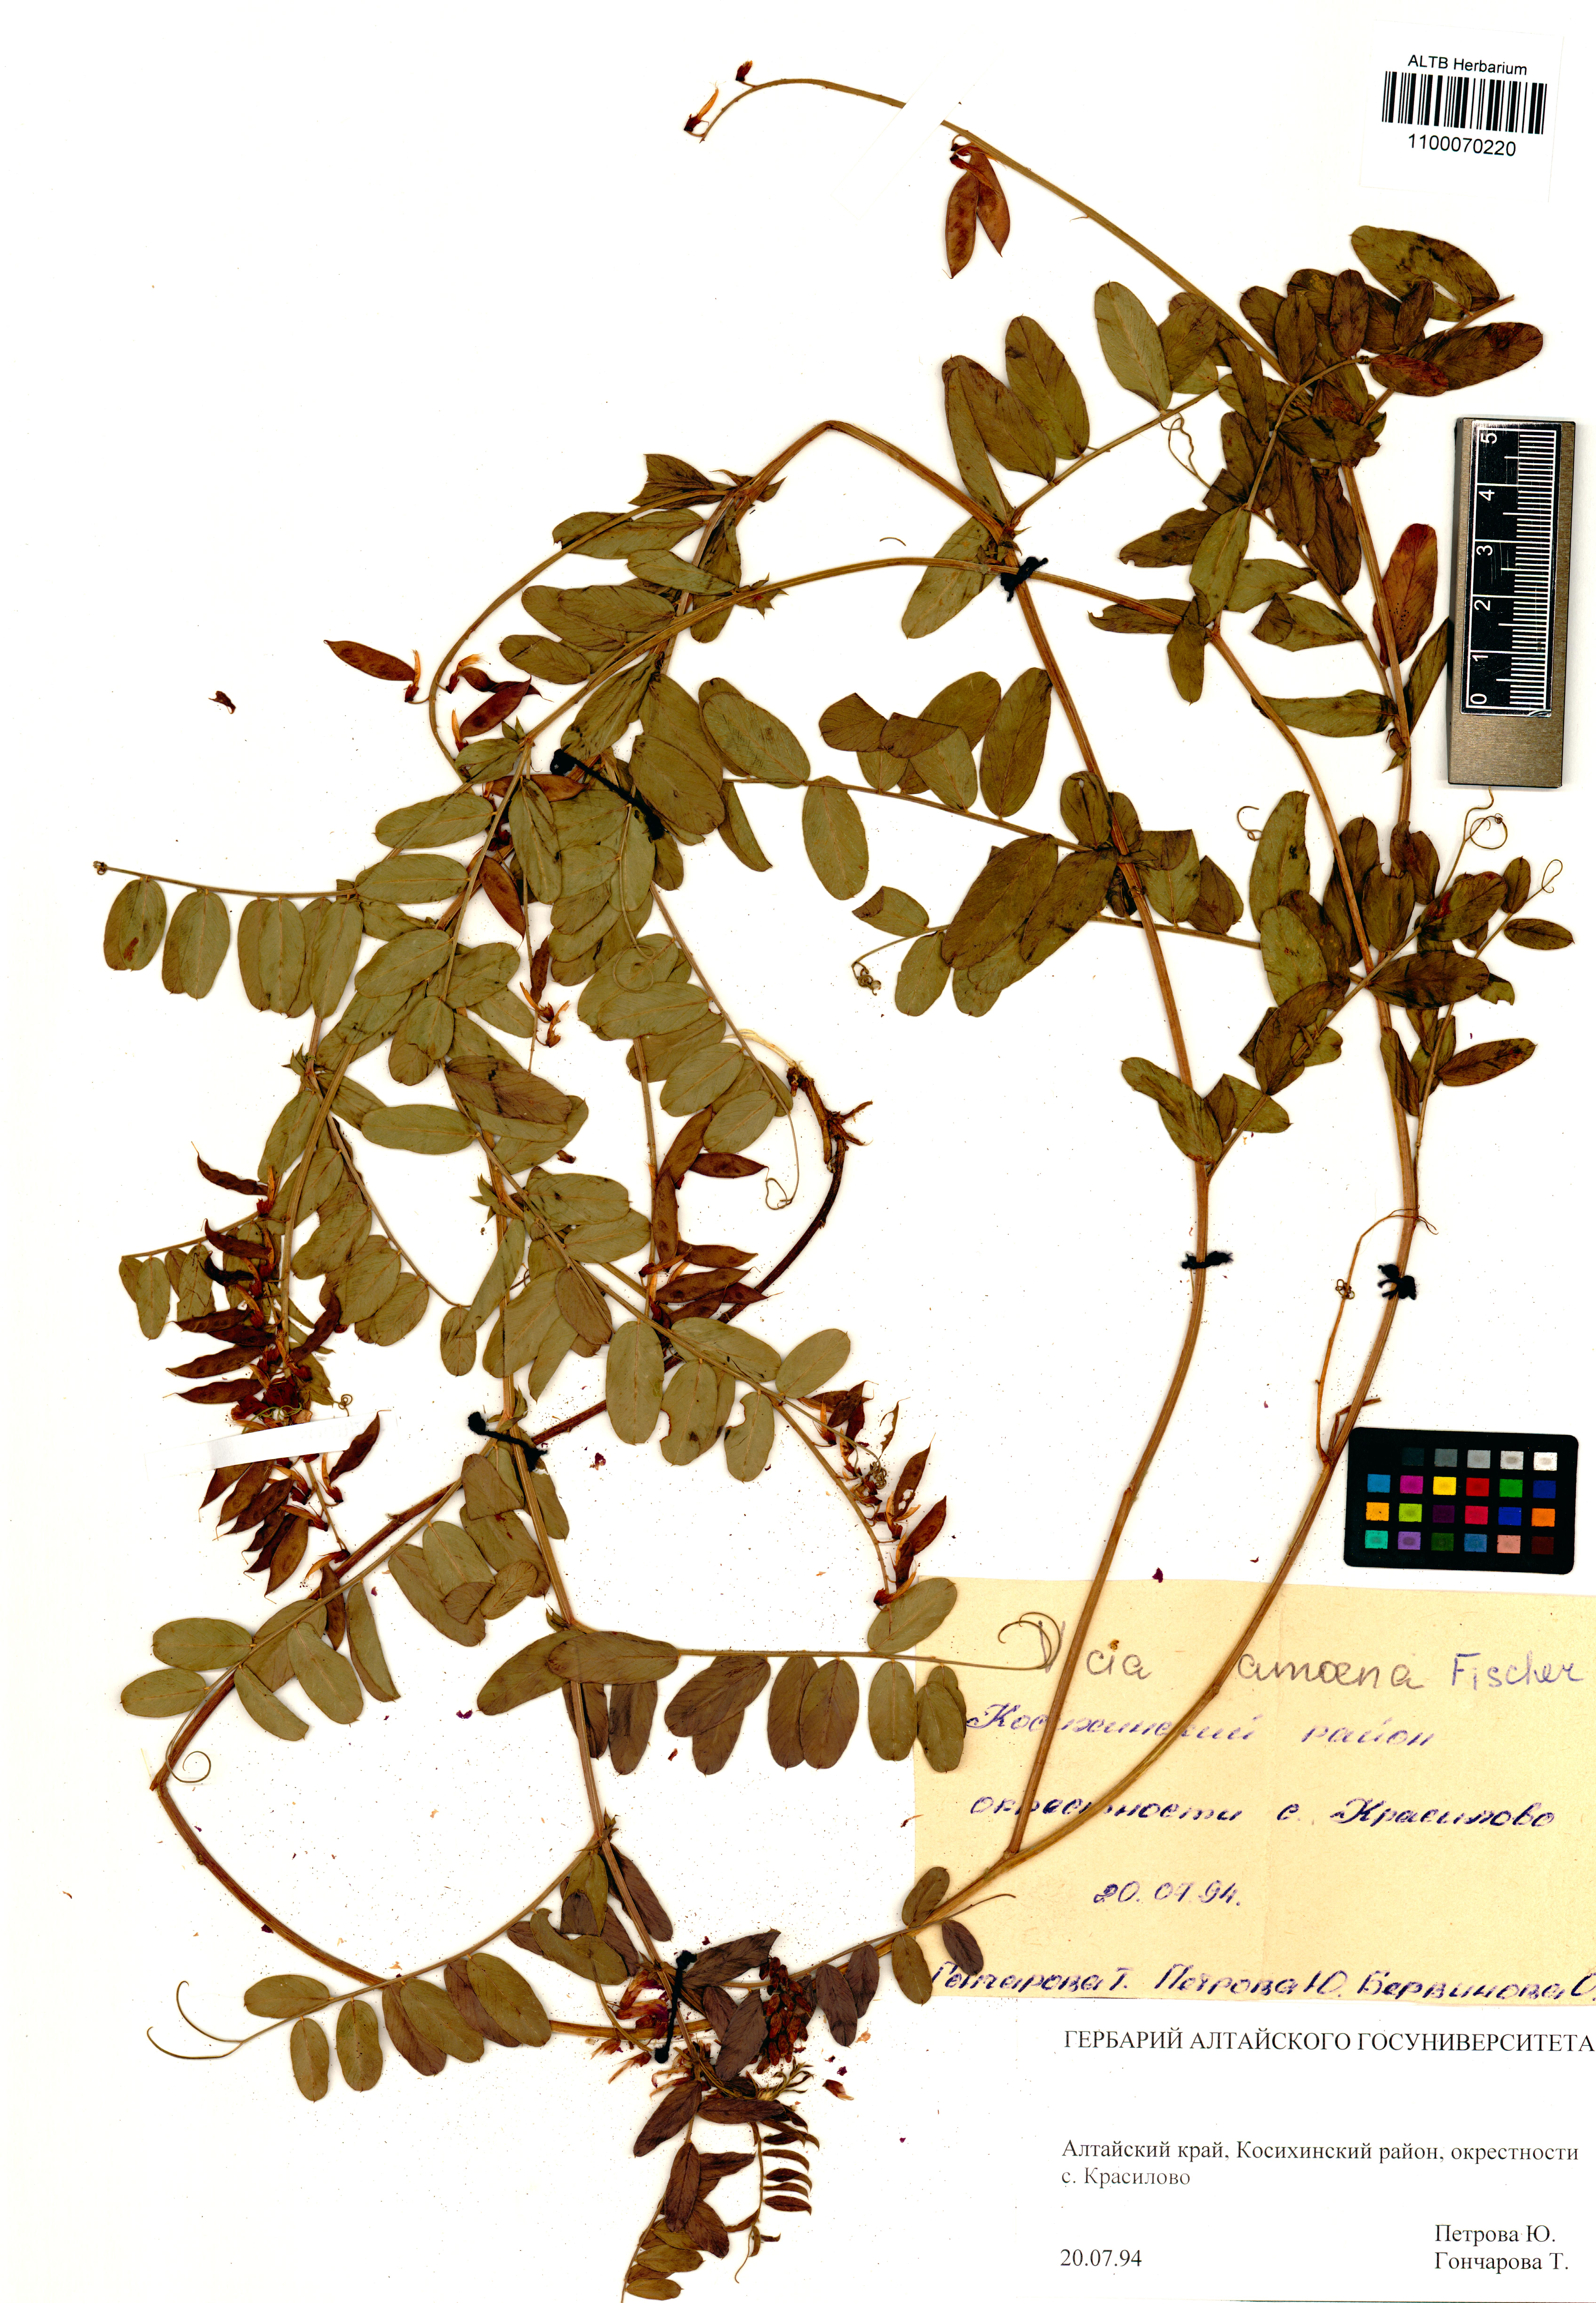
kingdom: Plantae
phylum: Tracheophyta
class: Magnoliopsida
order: Fabales
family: Fabaceae
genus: Vicia
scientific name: Vicia amoena
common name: Cheder ebs
